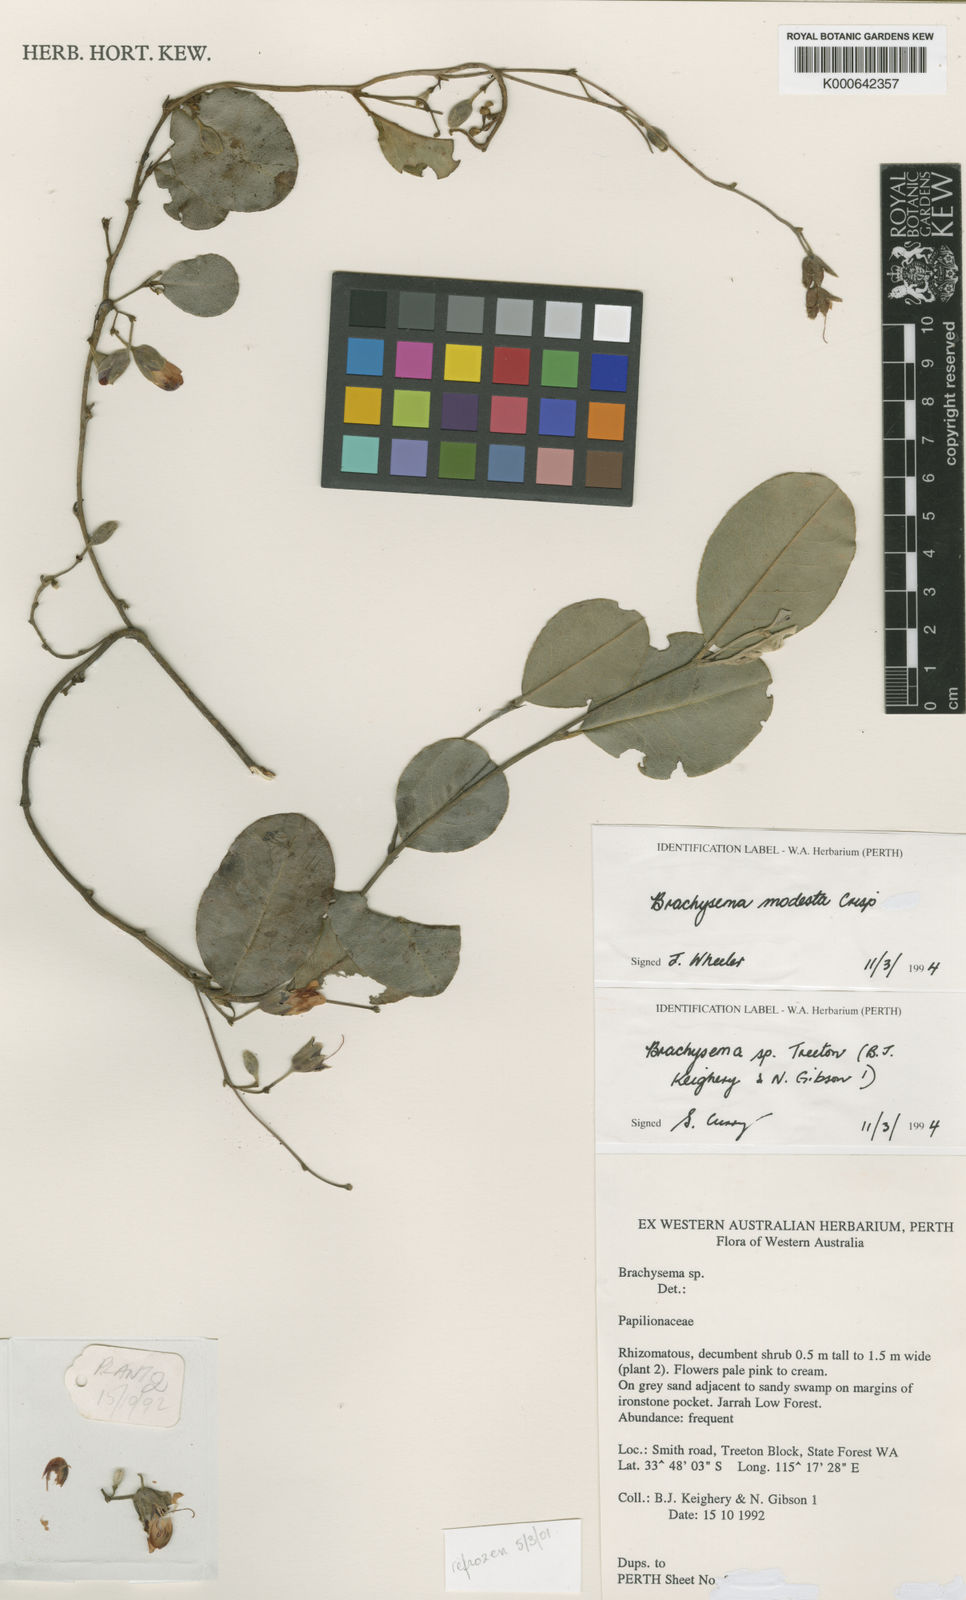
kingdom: Plantae
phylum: Tracheophyta
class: Magnoliopsida
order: Fabales
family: Fabaceae
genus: Gastrolobium
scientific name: Gastrolobium modestum
